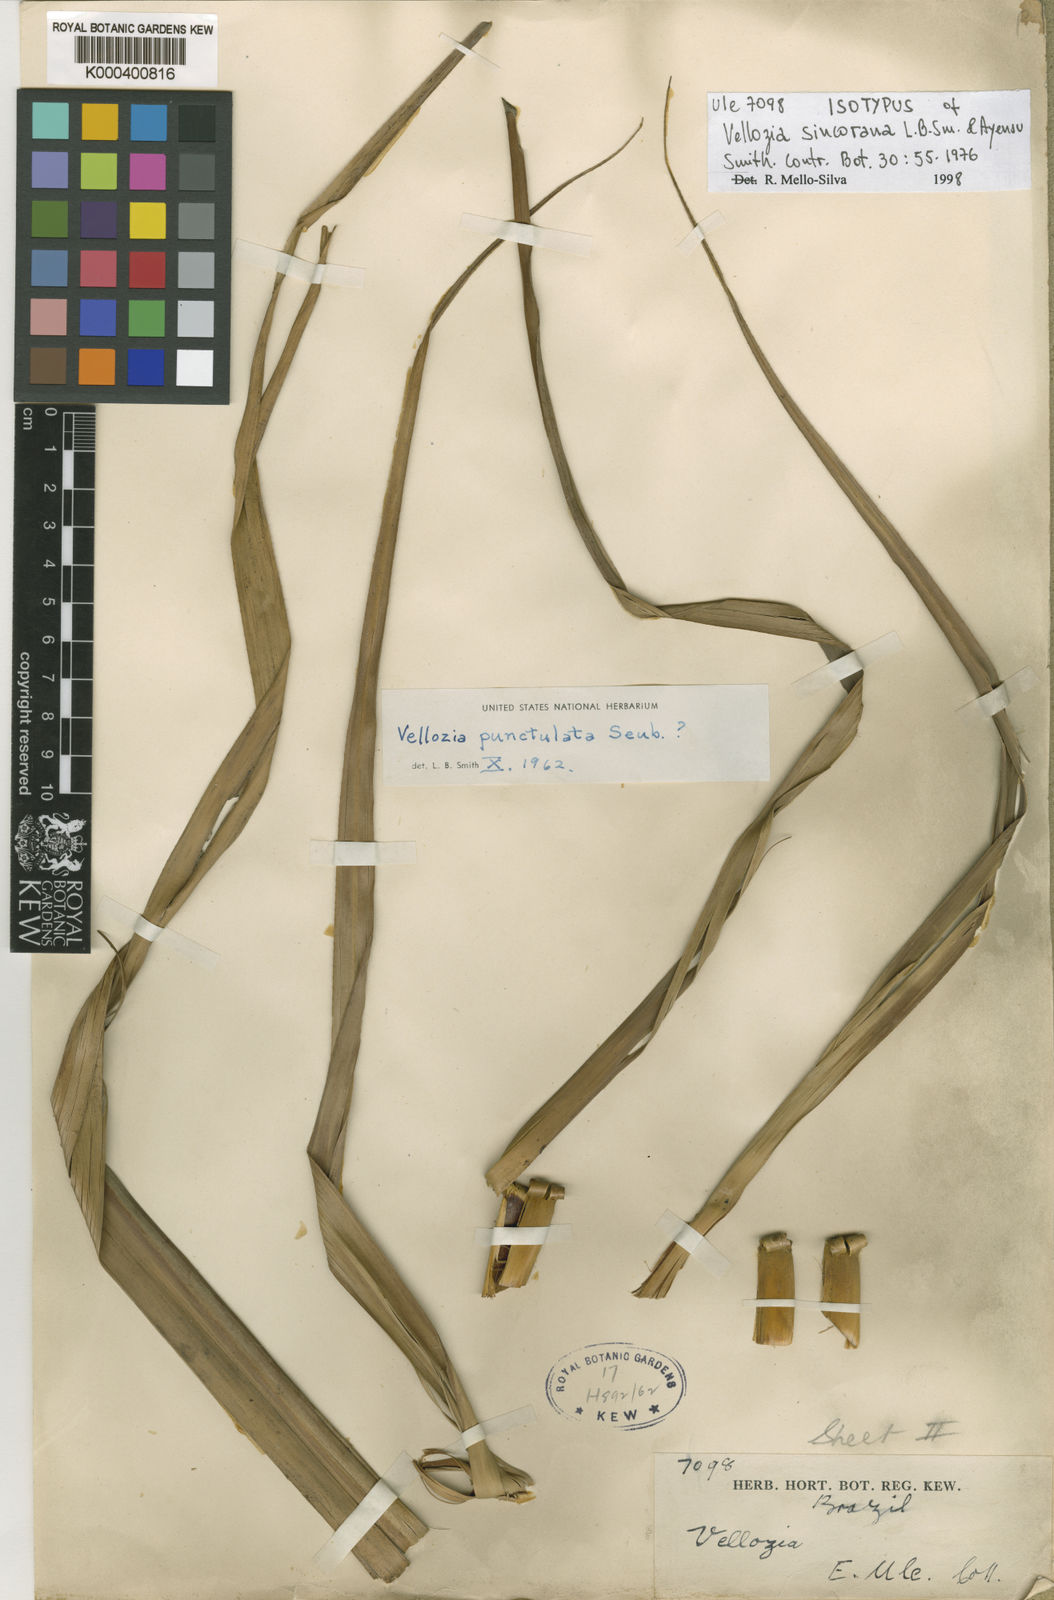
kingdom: Plantae
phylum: Tracheophyta
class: Liliopsida
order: Pandanales
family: Velloziaceae
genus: Vellozia
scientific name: Vellozia sincorana
